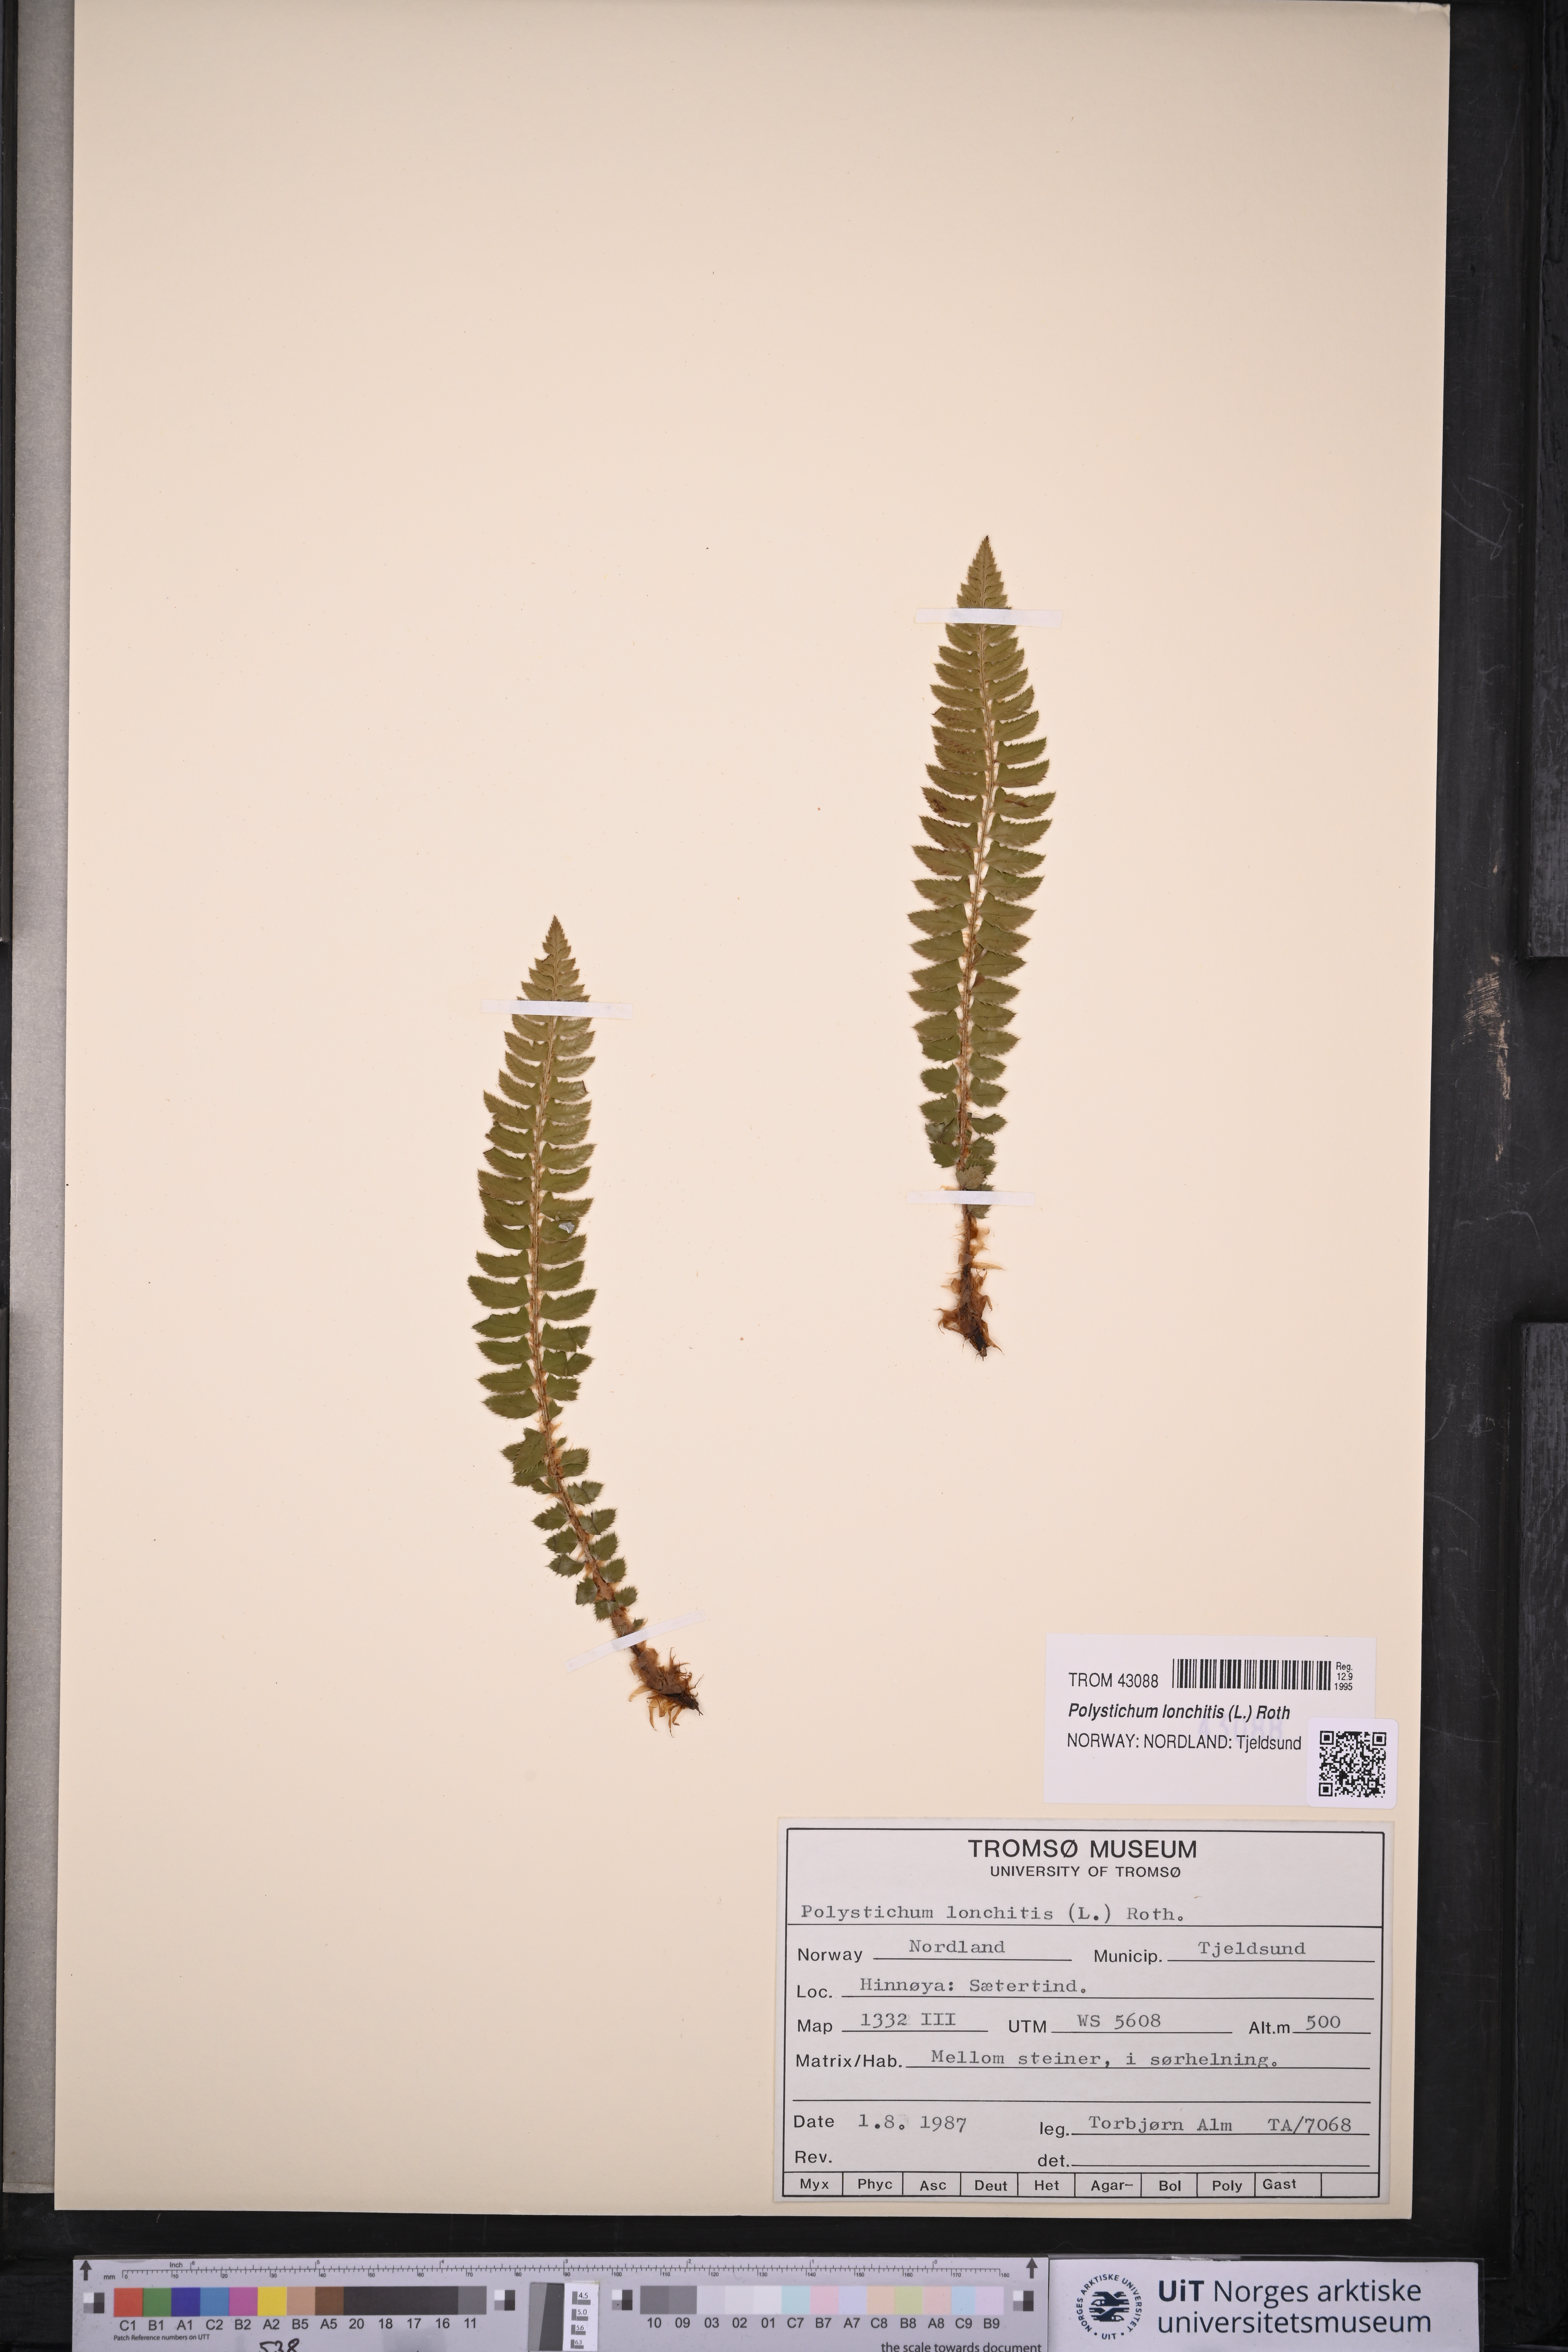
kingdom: Plantae
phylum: Tracheophyta
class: Polypodiopsida
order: Polypodiales
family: Dryopteridaceae
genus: Polystichum
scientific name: Polystichum lonchitis
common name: Holly fern
